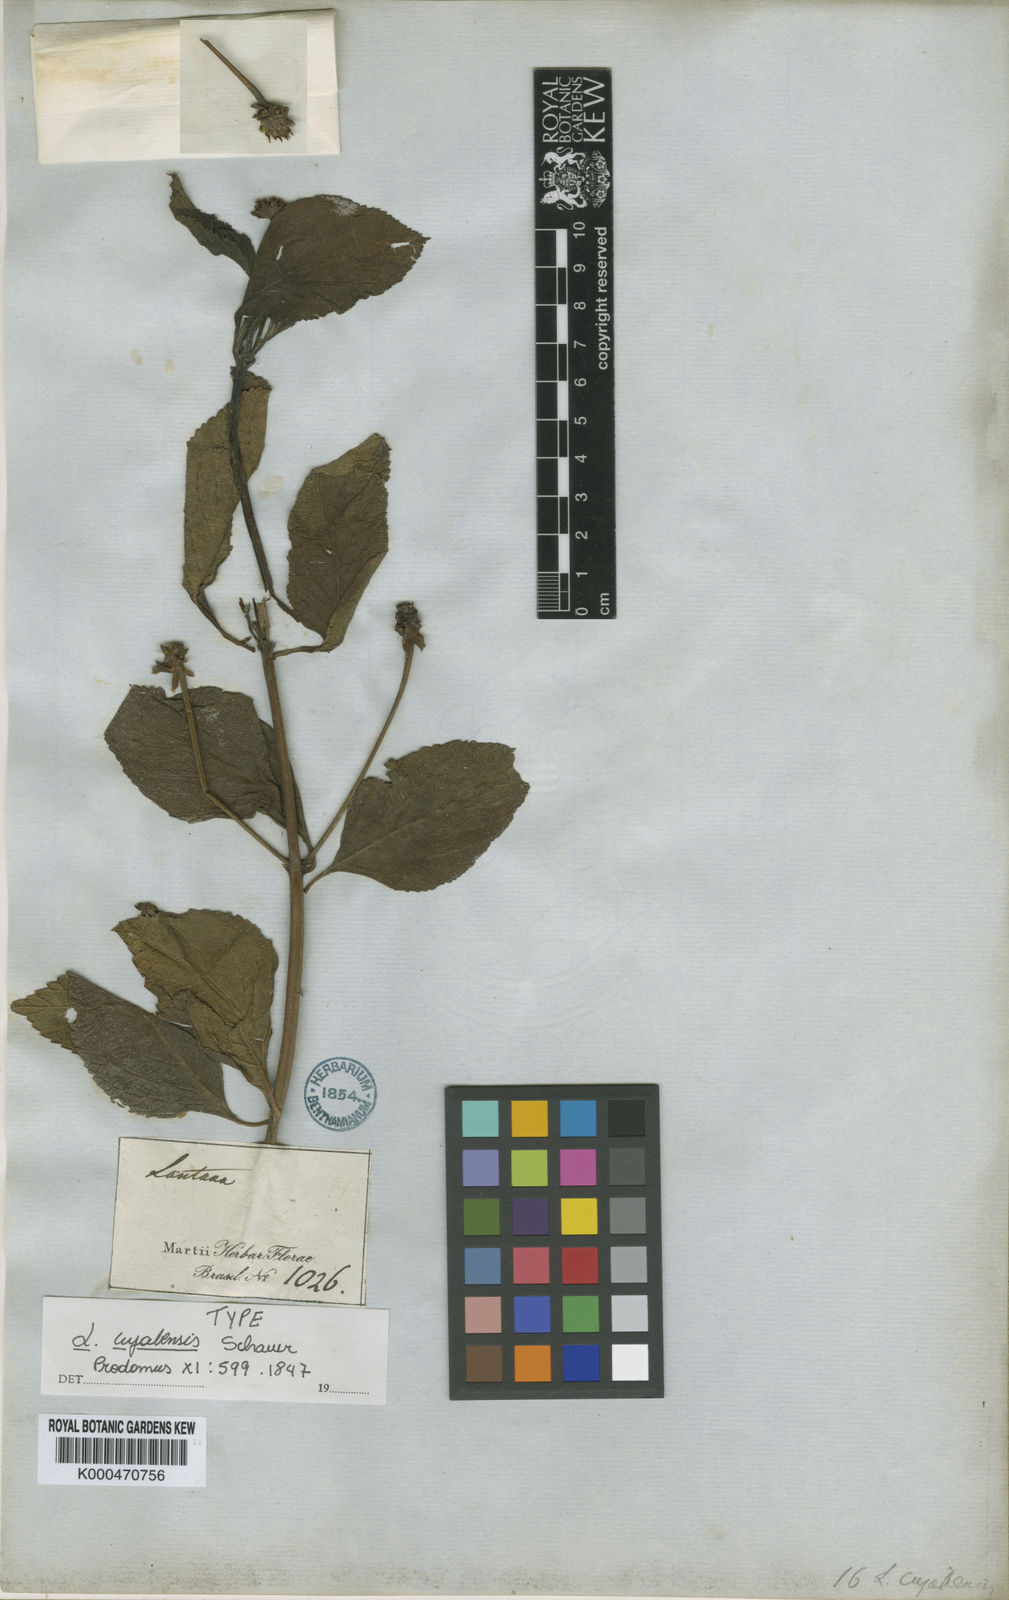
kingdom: Plantae
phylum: Tracheophyta
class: Magnoliopsida
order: Lamiales
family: Verbenaceae
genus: Lantana
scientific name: Lantana cujabensis
